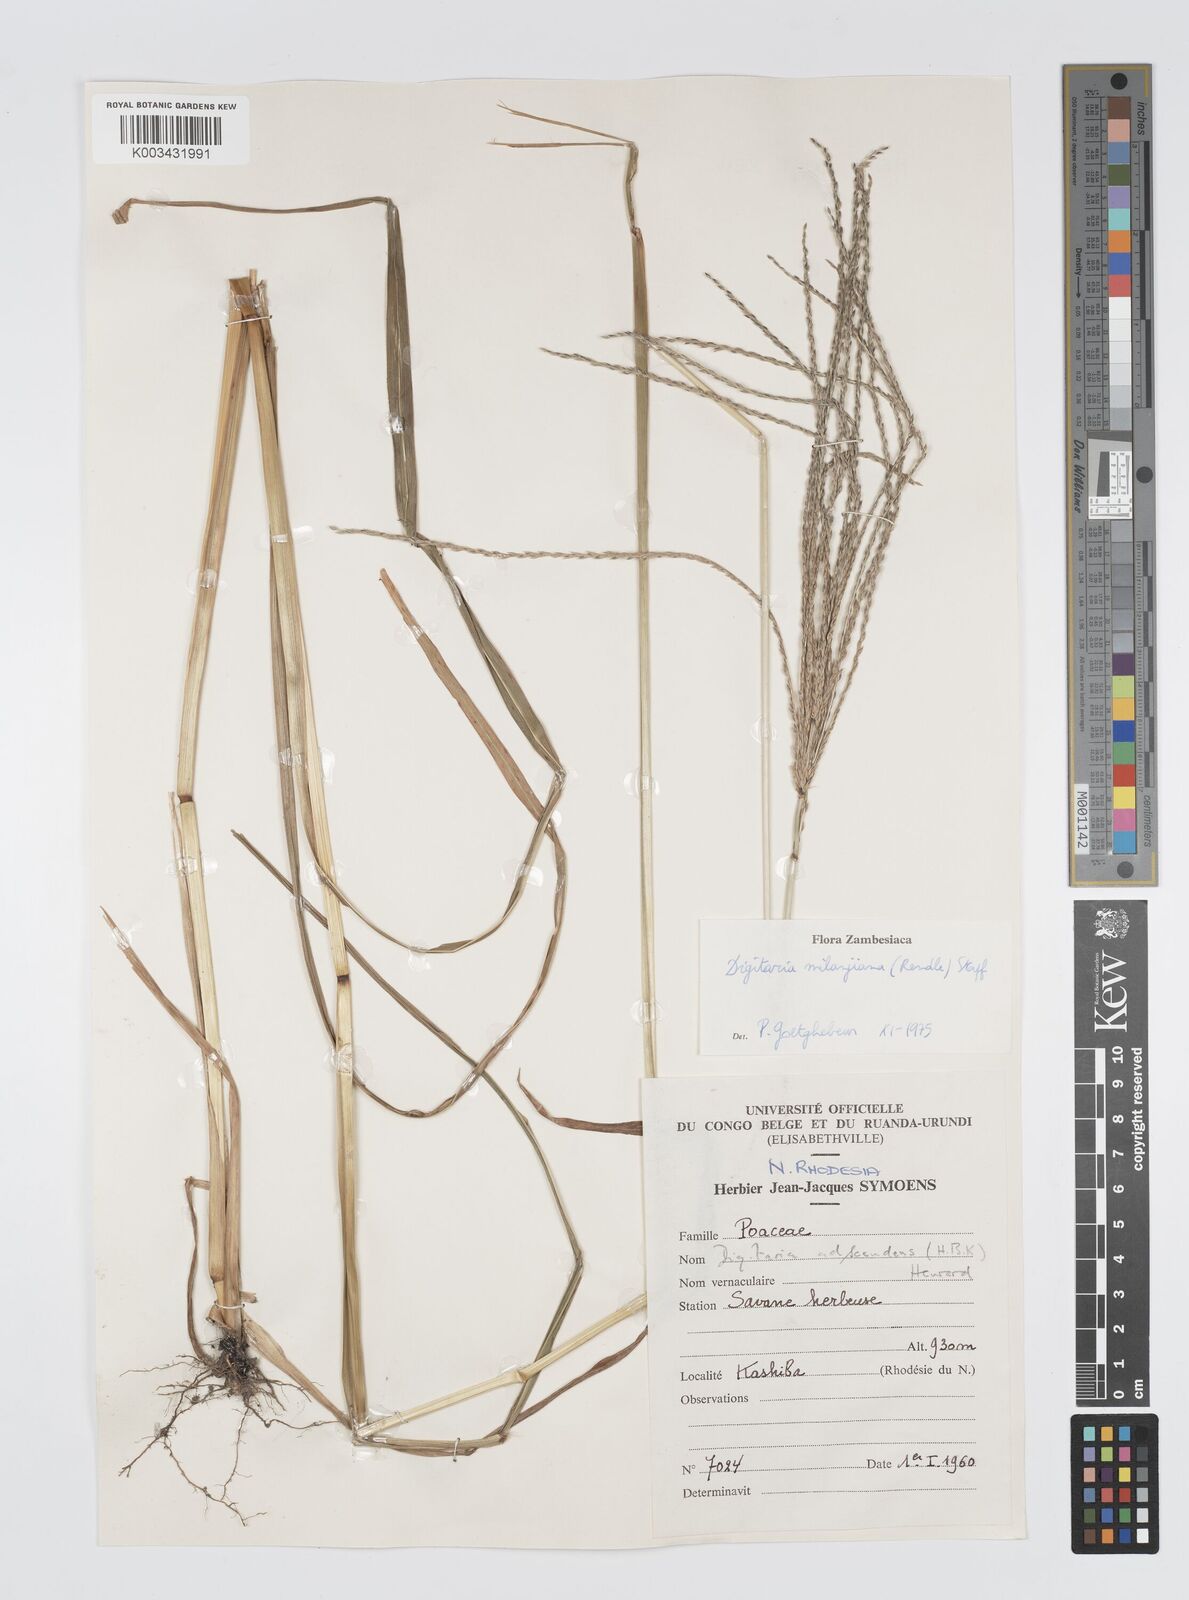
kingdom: Plantae
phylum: Tracheophyta
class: Liliopsida
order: Poales
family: Poaceae
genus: Digitaria
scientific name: Digitaria milanjiana
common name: Madagascar crabgrass
